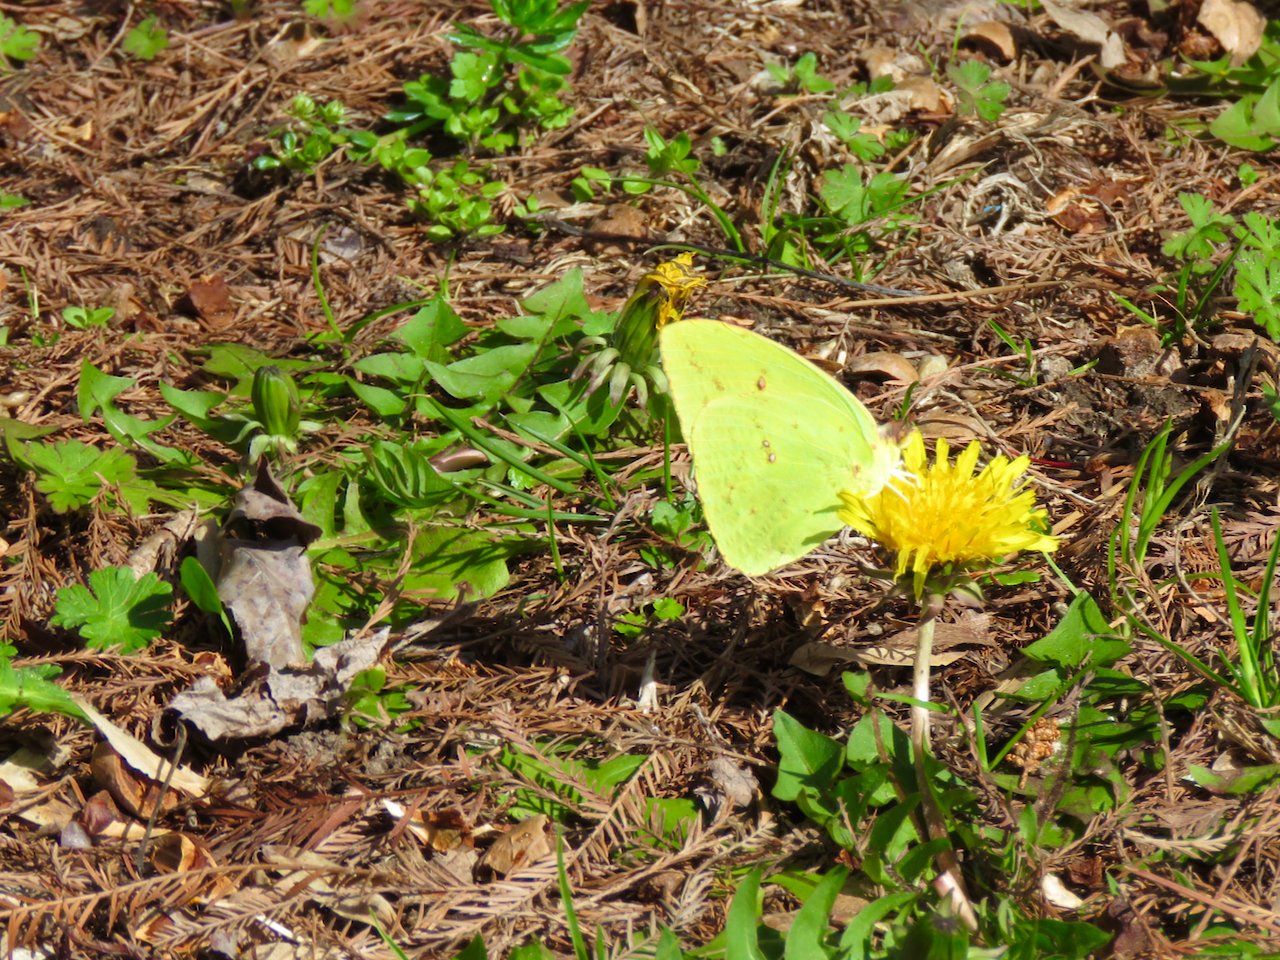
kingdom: Animalia
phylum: Arthropoda
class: Insecta
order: Lepidoptera
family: Pieridae
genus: Phoebis
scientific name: Phoebis sennae
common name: Cloudless Sulphur
